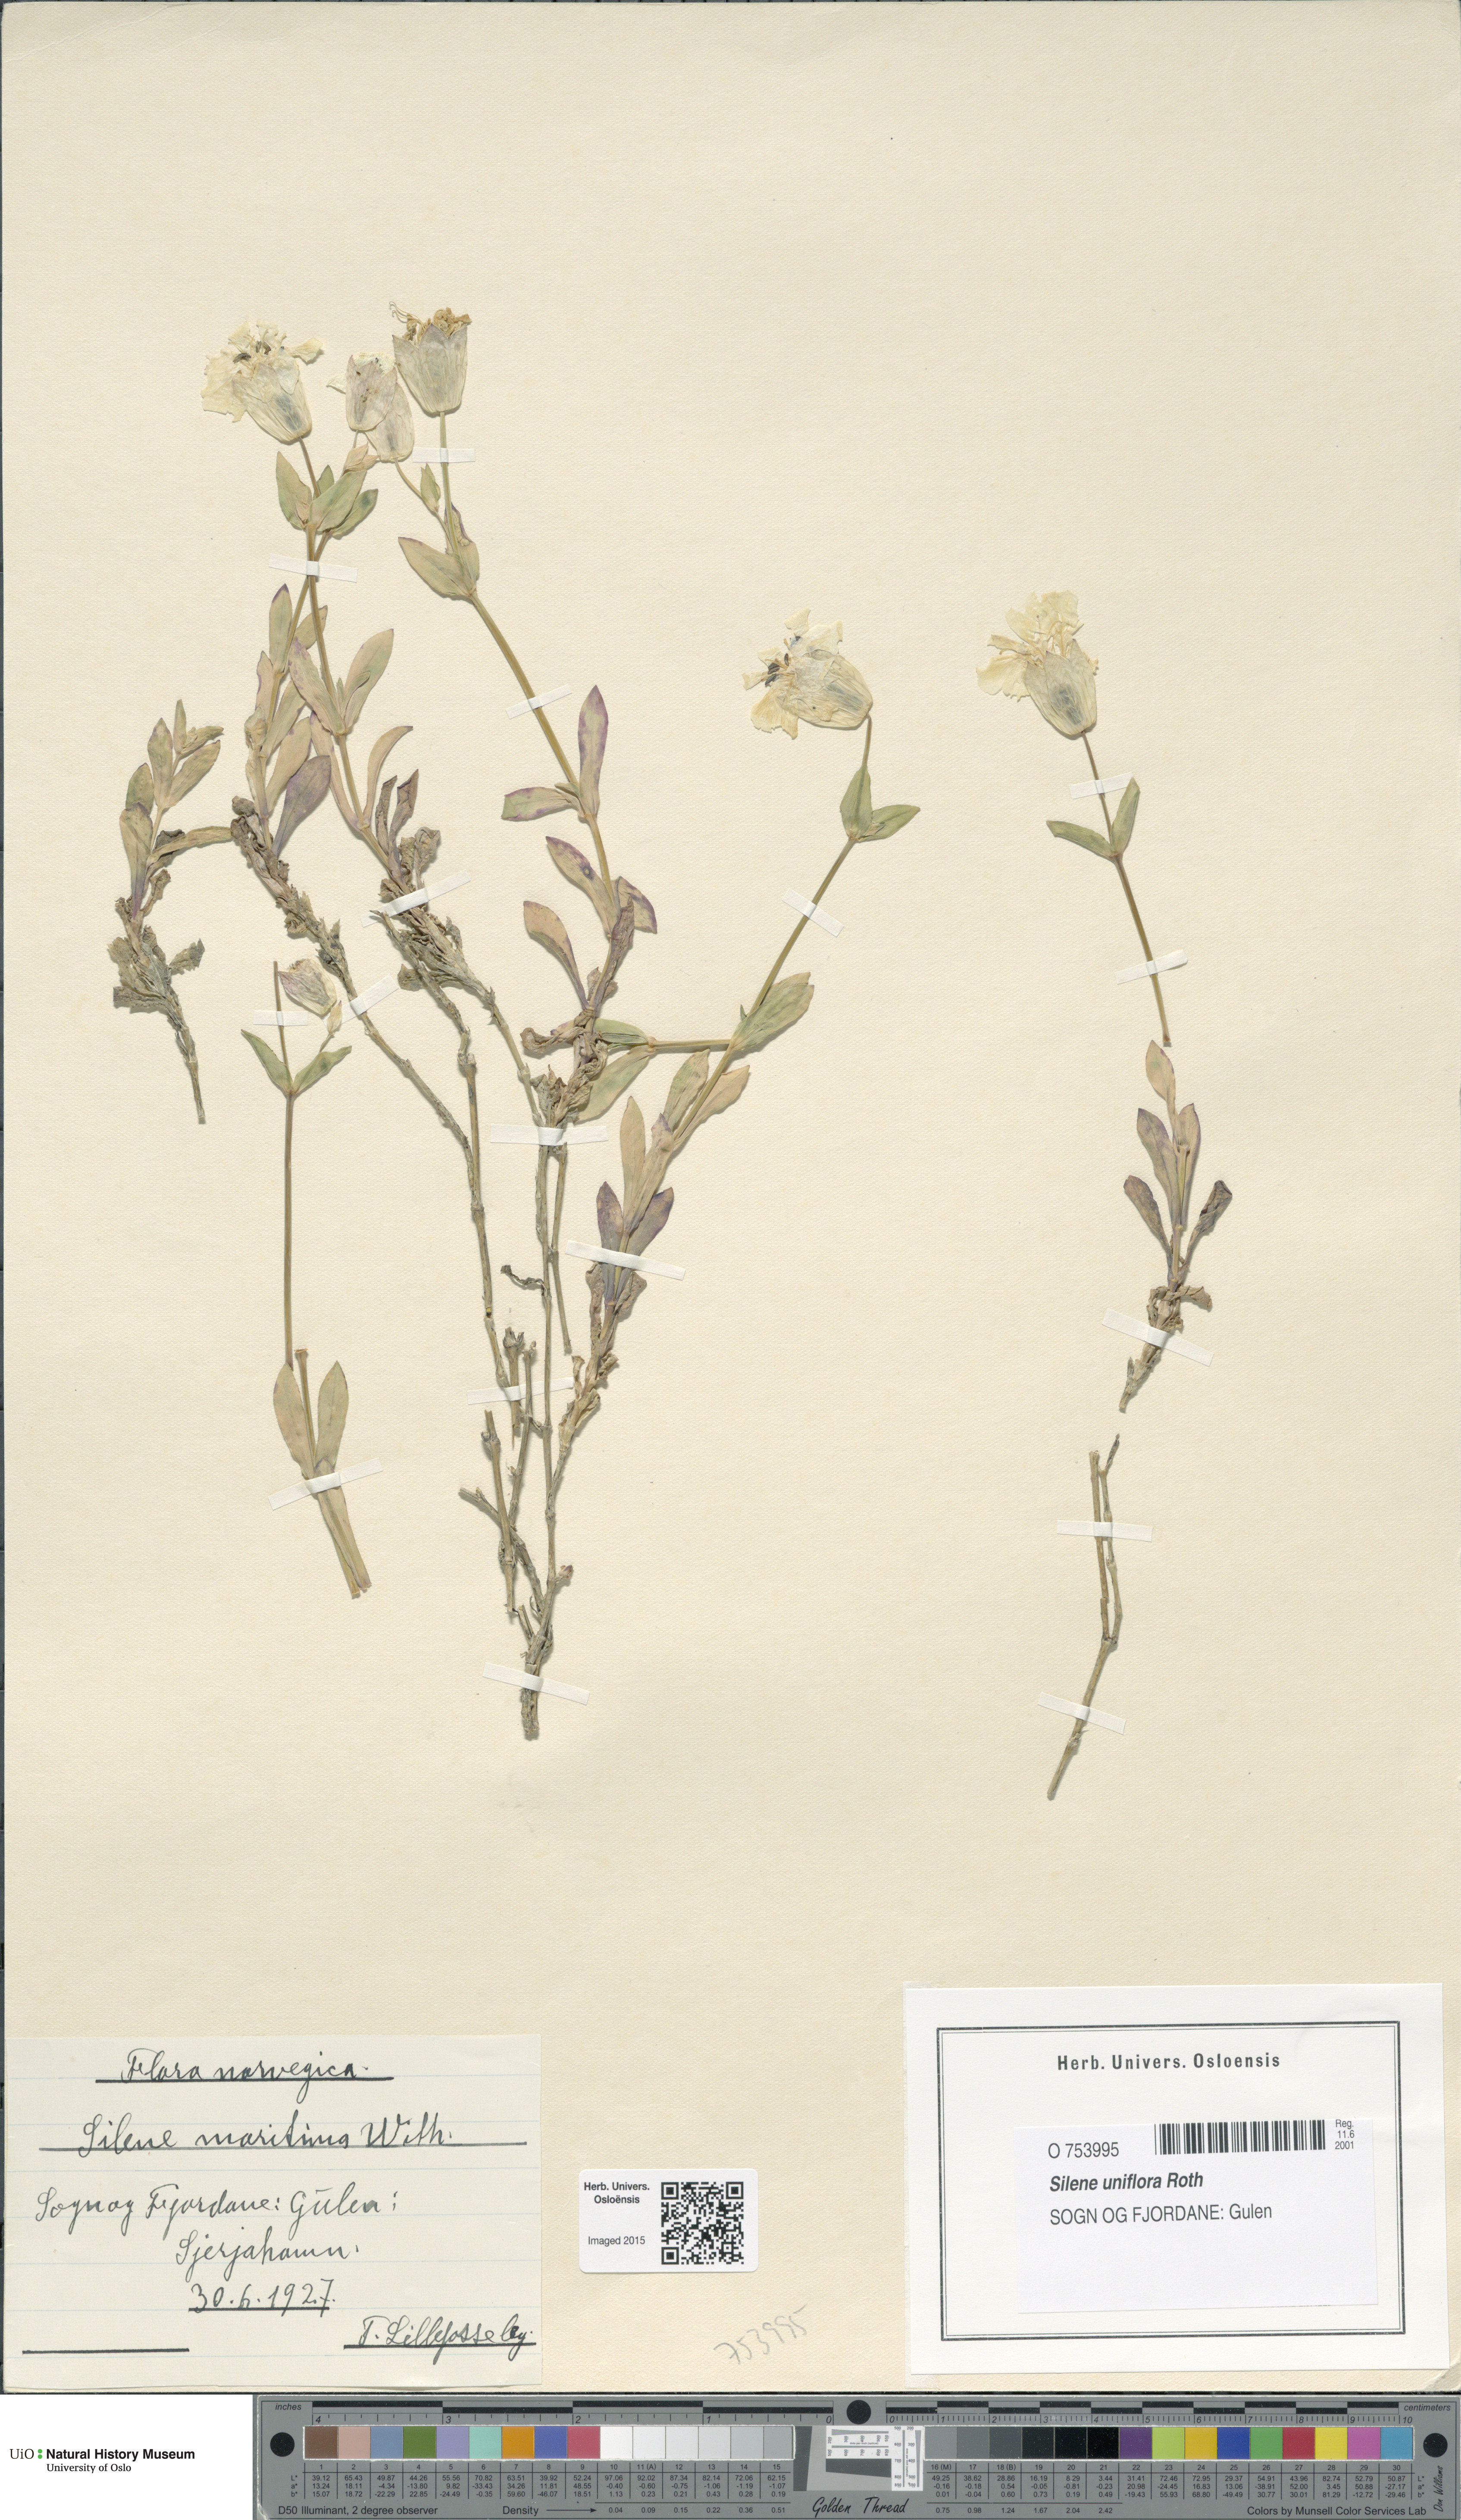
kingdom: Plantae
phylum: Tracheophyta
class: Magnoliopsida
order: Caryophyllales
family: Caryophyllaceae
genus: Silene
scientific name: Silene uniflora
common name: Sea campion
